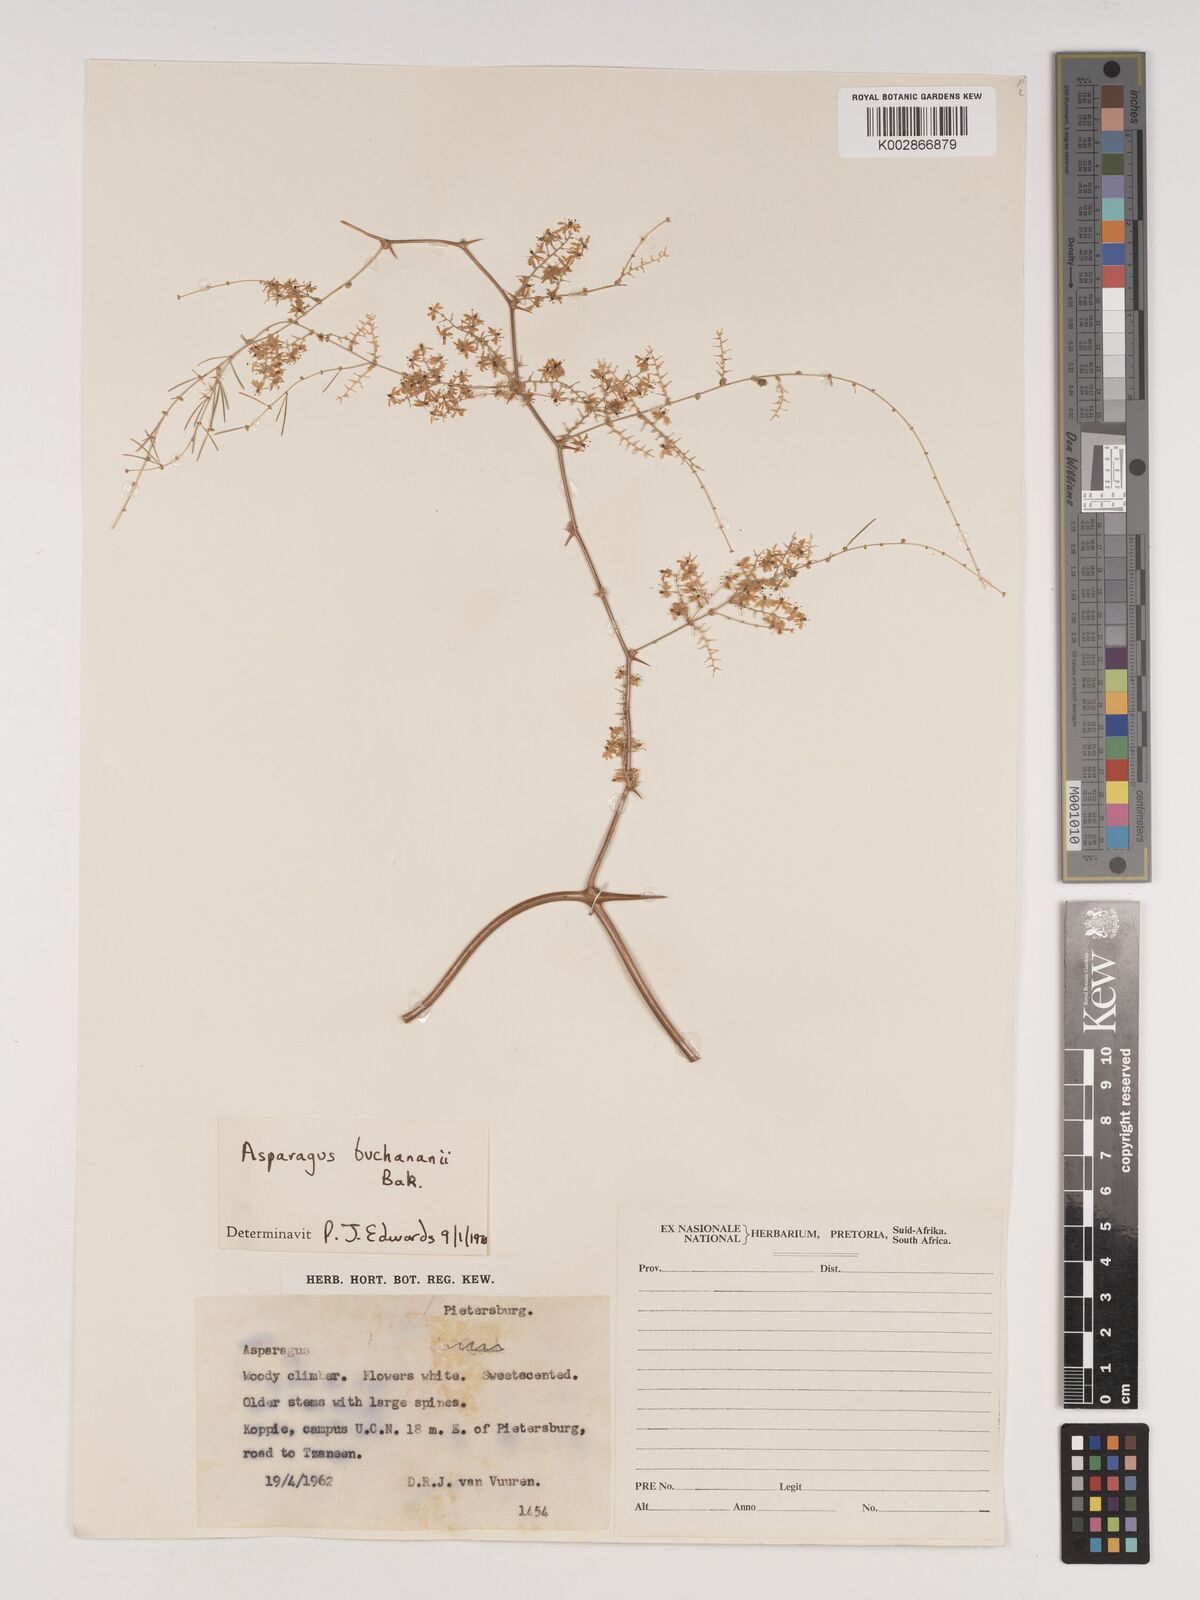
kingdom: Plantae
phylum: Tracheophyta
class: Liliopsida
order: Asparagales
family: Asparagaceae
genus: Asparagus
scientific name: Asparagus buchananii
